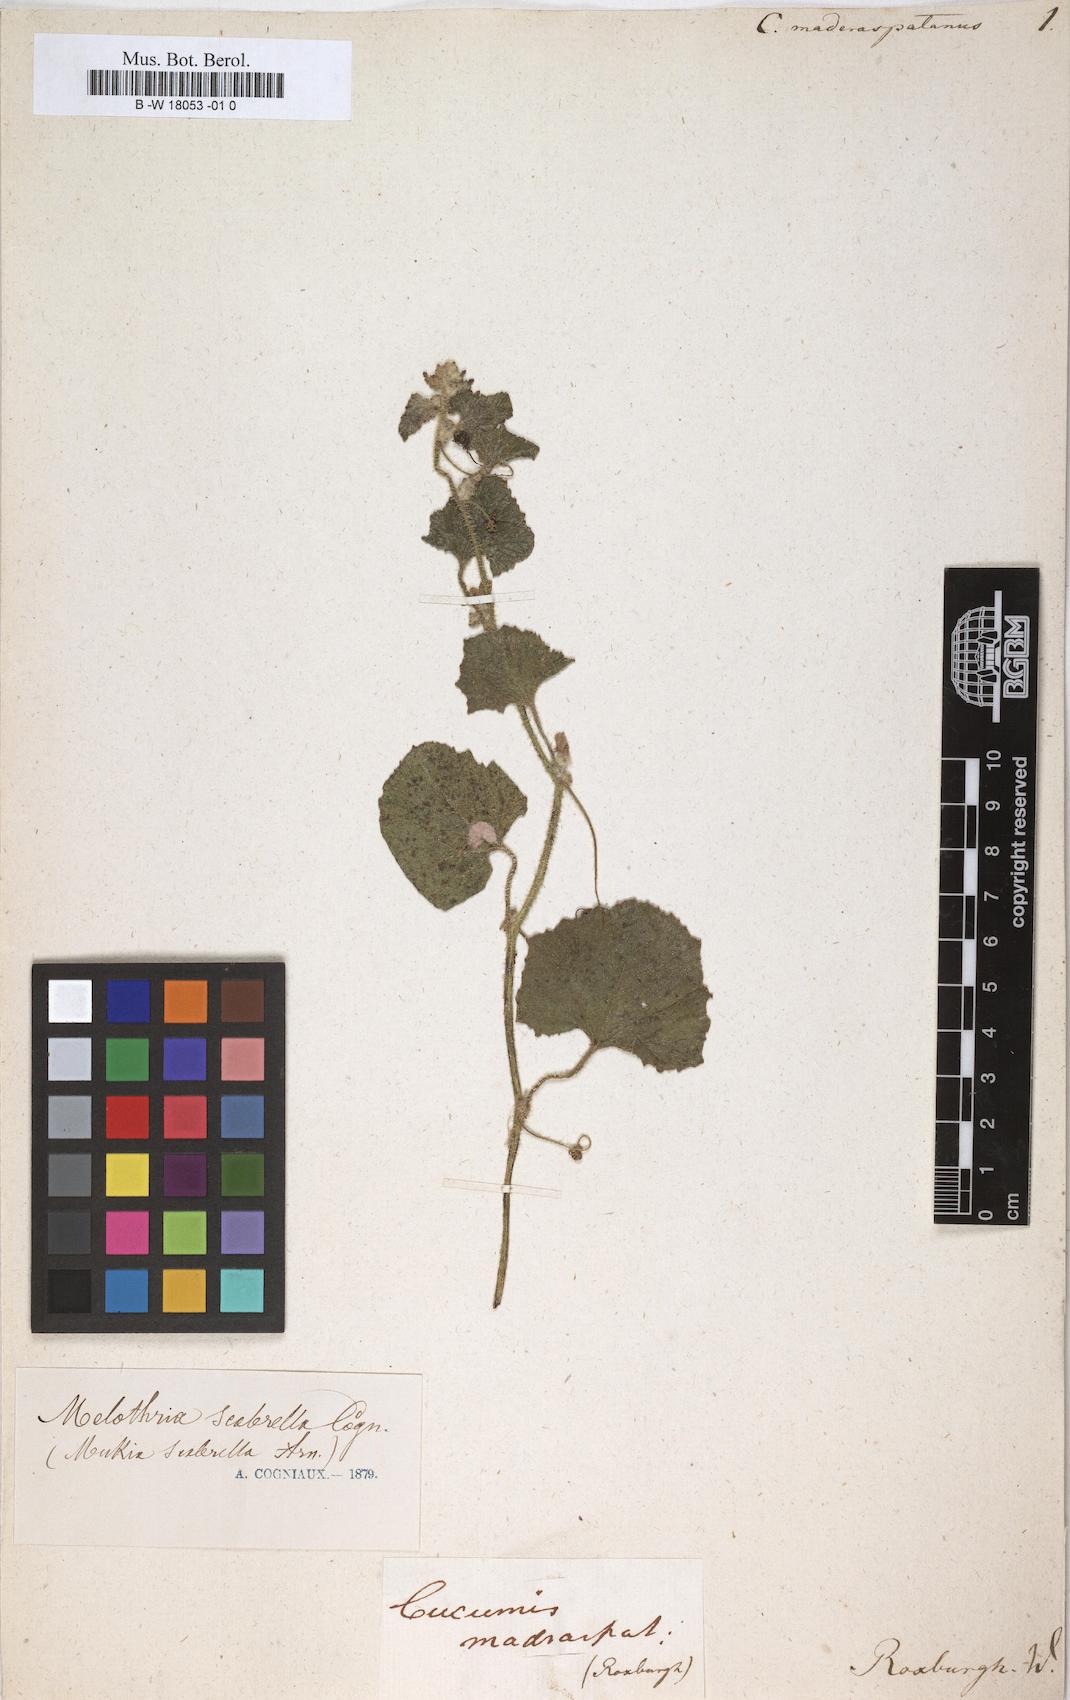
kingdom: Plantae
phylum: Tracheophyta
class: Magnoliopsida
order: Cucurbitales
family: Cucurbitaceae
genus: Cucumis
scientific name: Cucumis maderaspatanus
